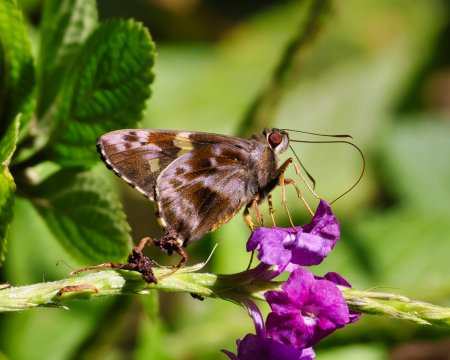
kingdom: Animalia
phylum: Arthropoda
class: Insecta
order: Lepidoptera
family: Hesperiidae
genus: Perichares
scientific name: Perichares philetes
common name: Green-backed Ruby-eye
